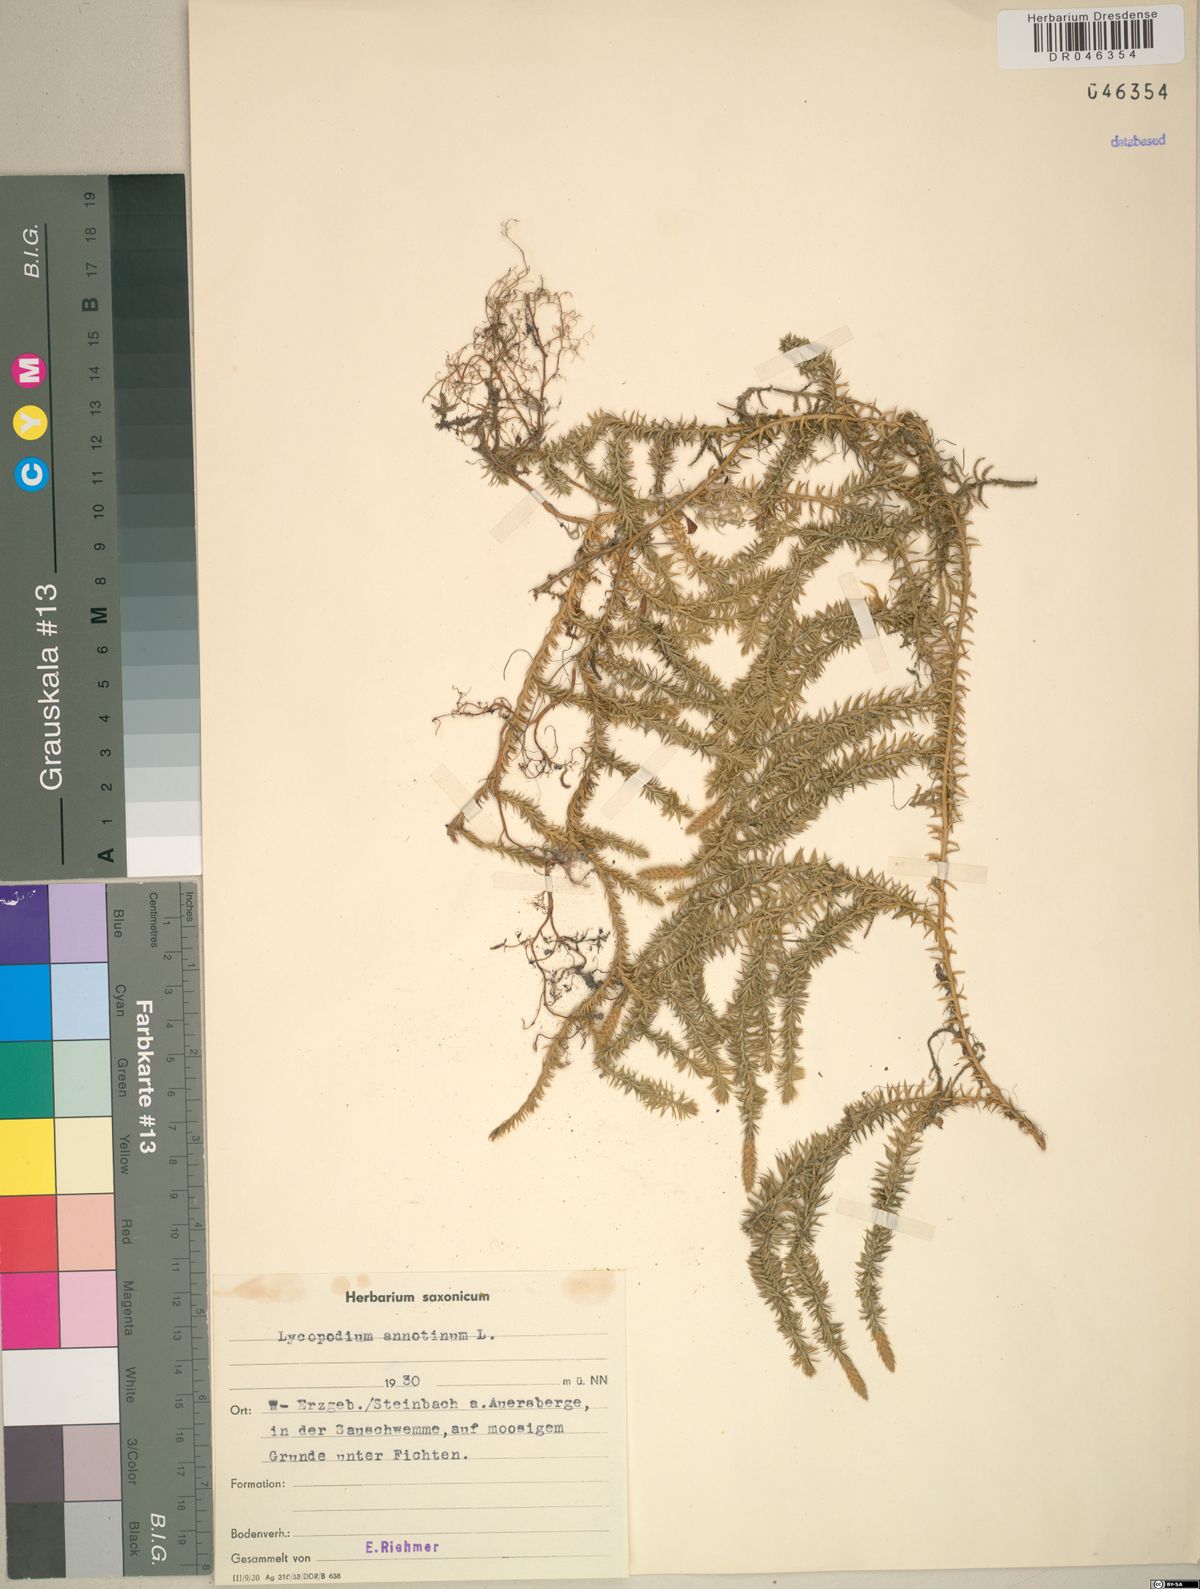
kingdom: Plantae
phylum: Tracheophyta
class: Lycopodiopsida
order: Lycopodiales
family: Lycopodiaceae
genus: Spinulum
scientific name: Spinulum annotinum
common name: Interrupted club-moss
